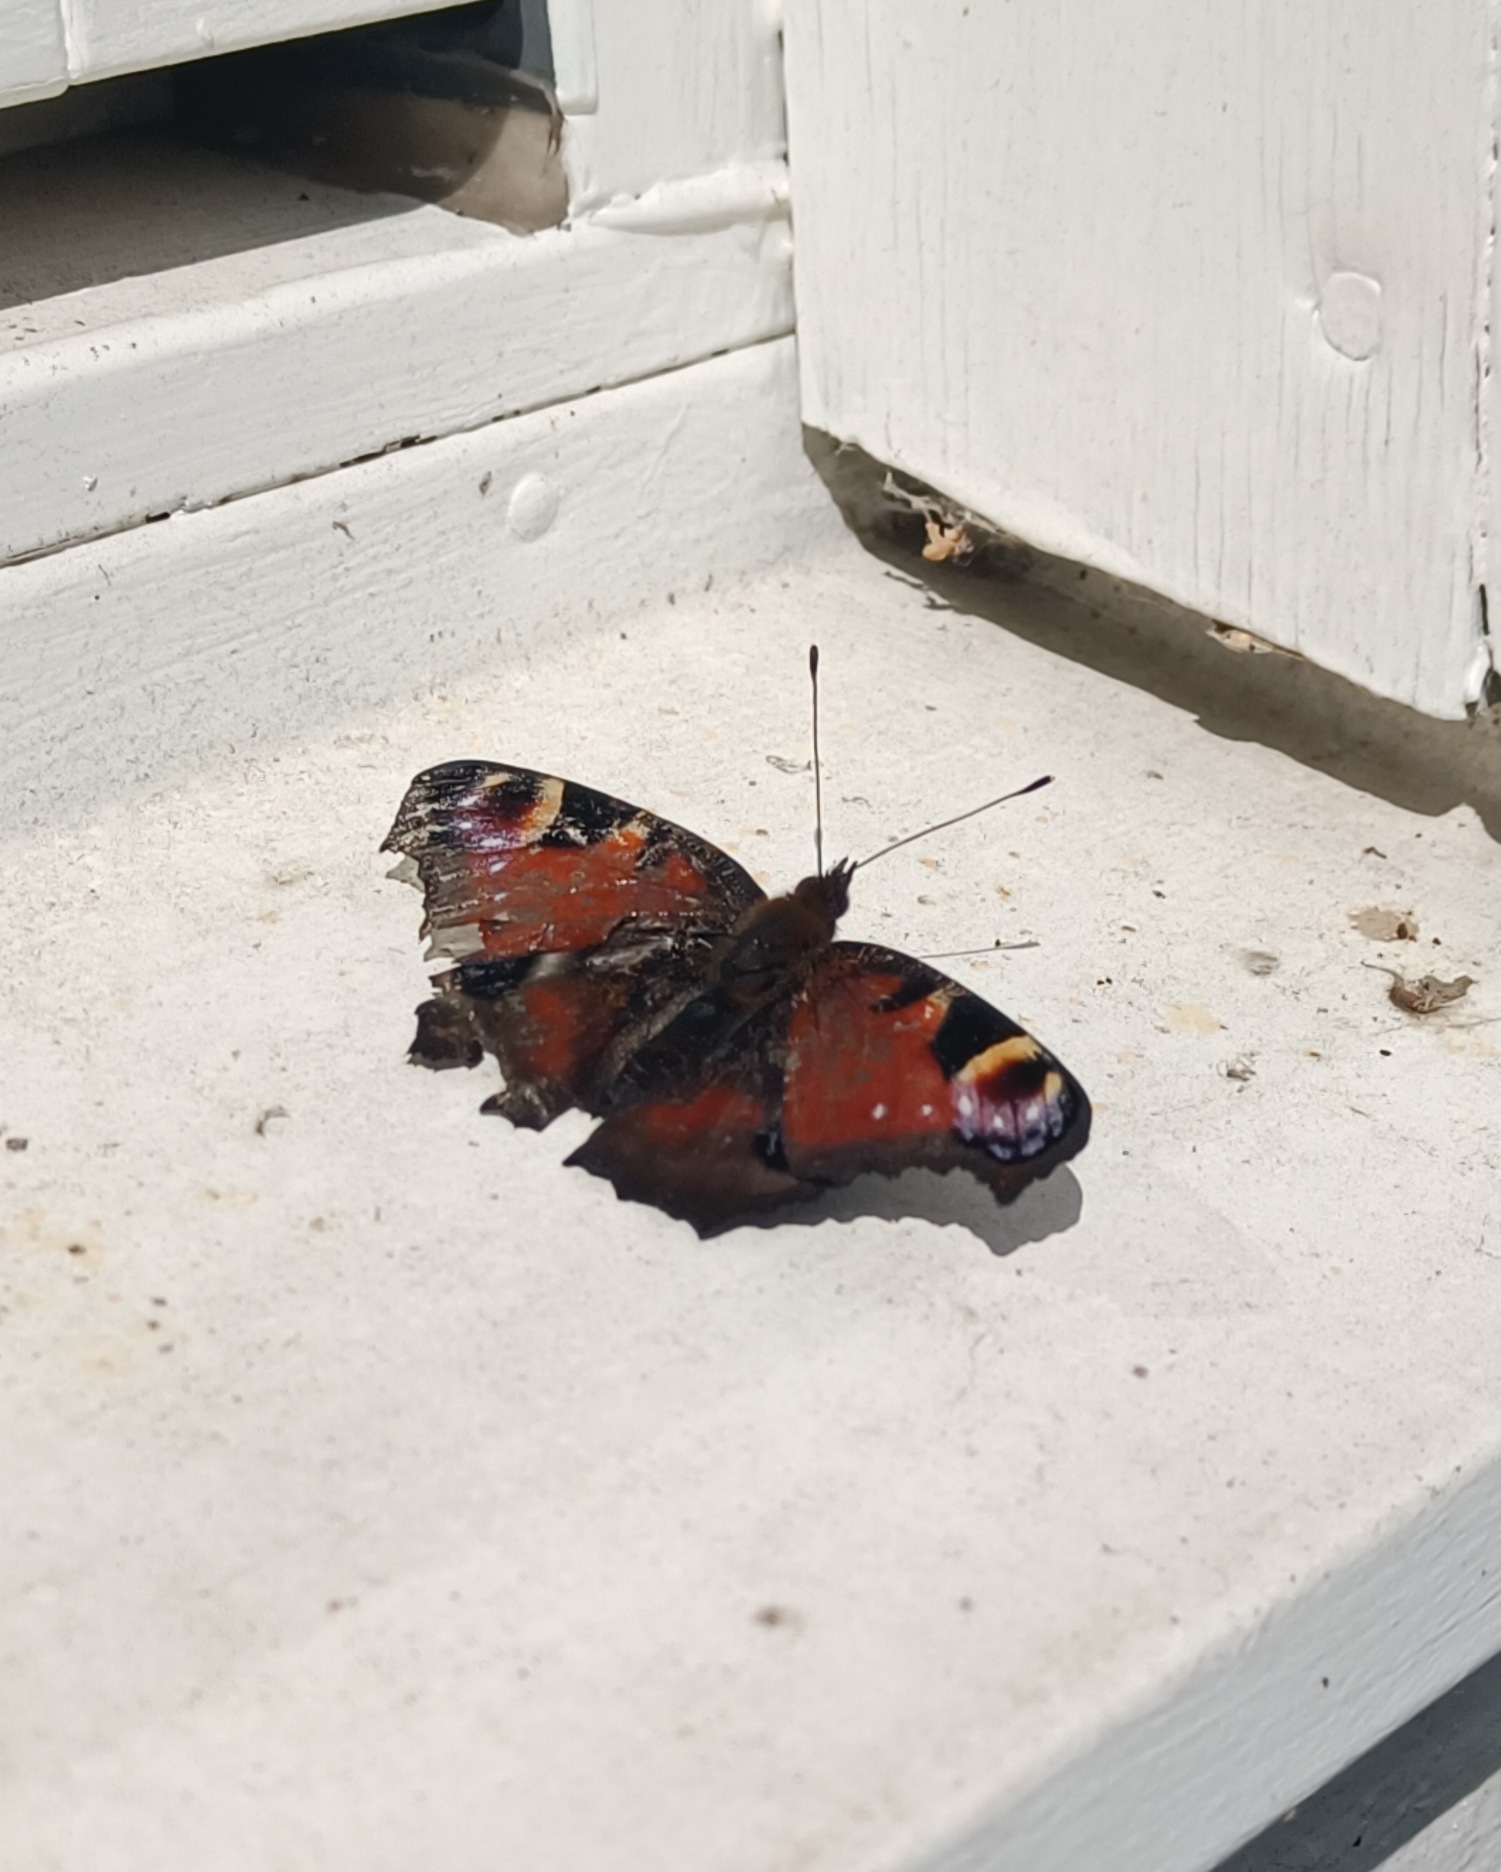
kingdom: Animalia
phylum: Arthropoda
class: Insecta
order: Lepidoptera
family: Nymphalidae
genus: Aglais
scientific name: Aglais io
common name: Dagpåfugleøje
